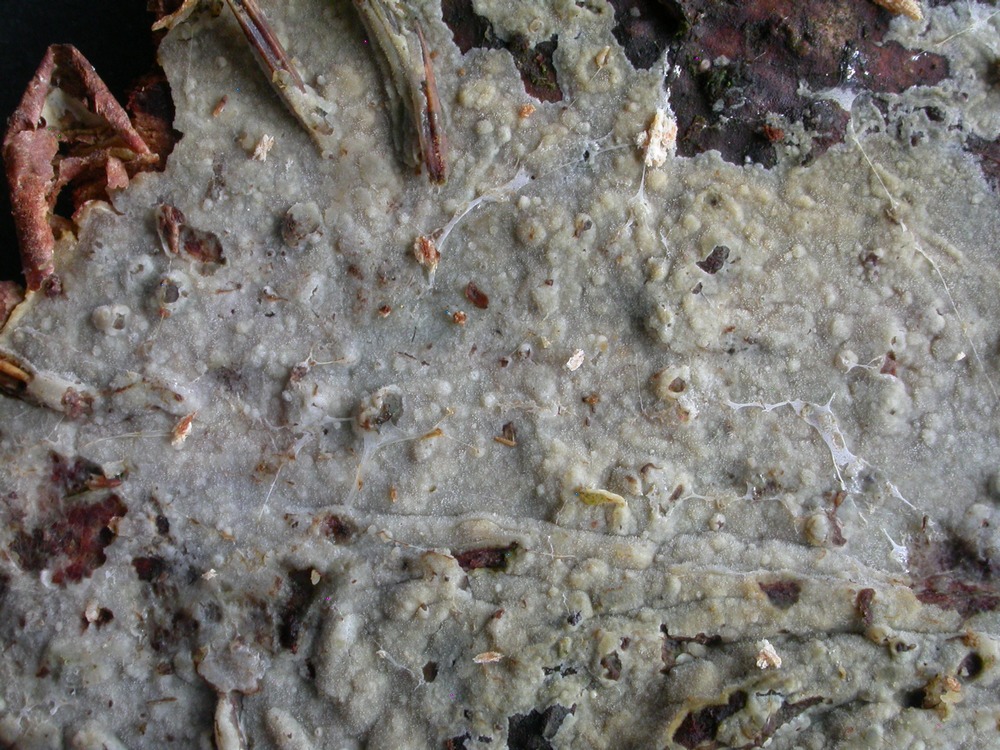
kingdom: Fungi
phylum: Basidiomycota
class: Agaricomycetes
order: Polyporales
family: Meruliaceae
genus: Scopuloides
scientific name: Scopuloides rimosa
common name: dughinde
